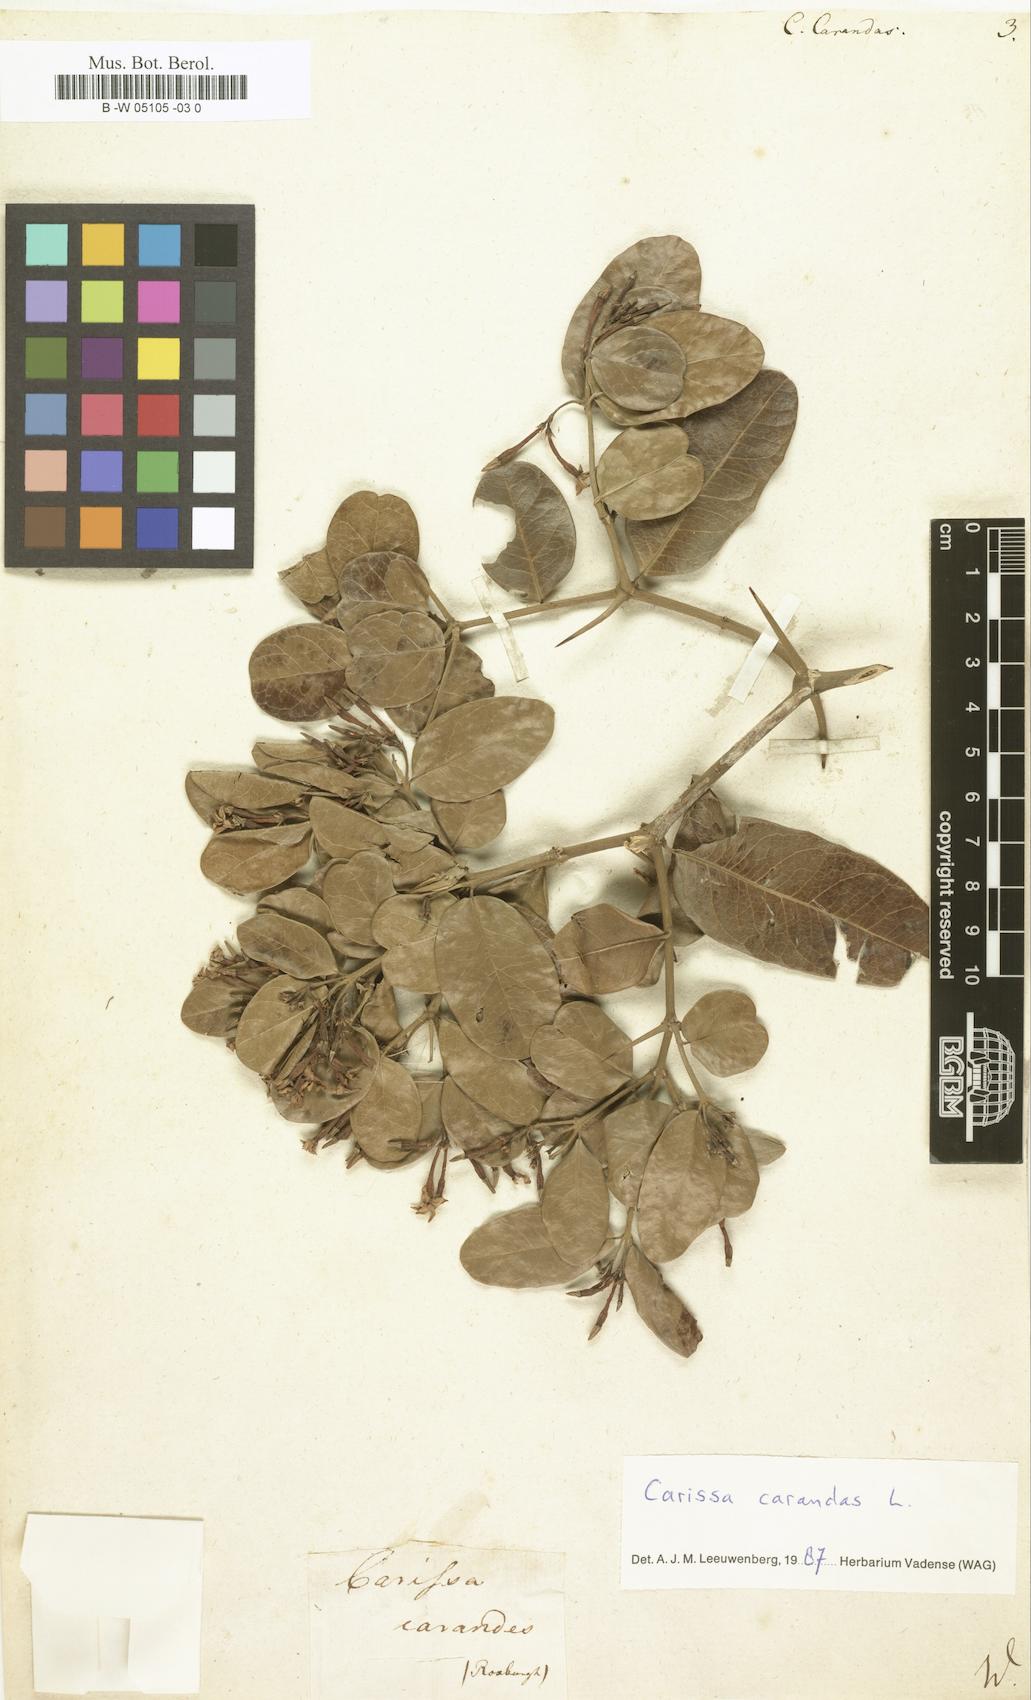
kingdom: Plantae
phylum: Tracheophyta
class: Magnoliopsida
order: Gentianales
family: Apocynaceae
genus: Carissa
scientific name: Carissa carandas
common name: Karanda
